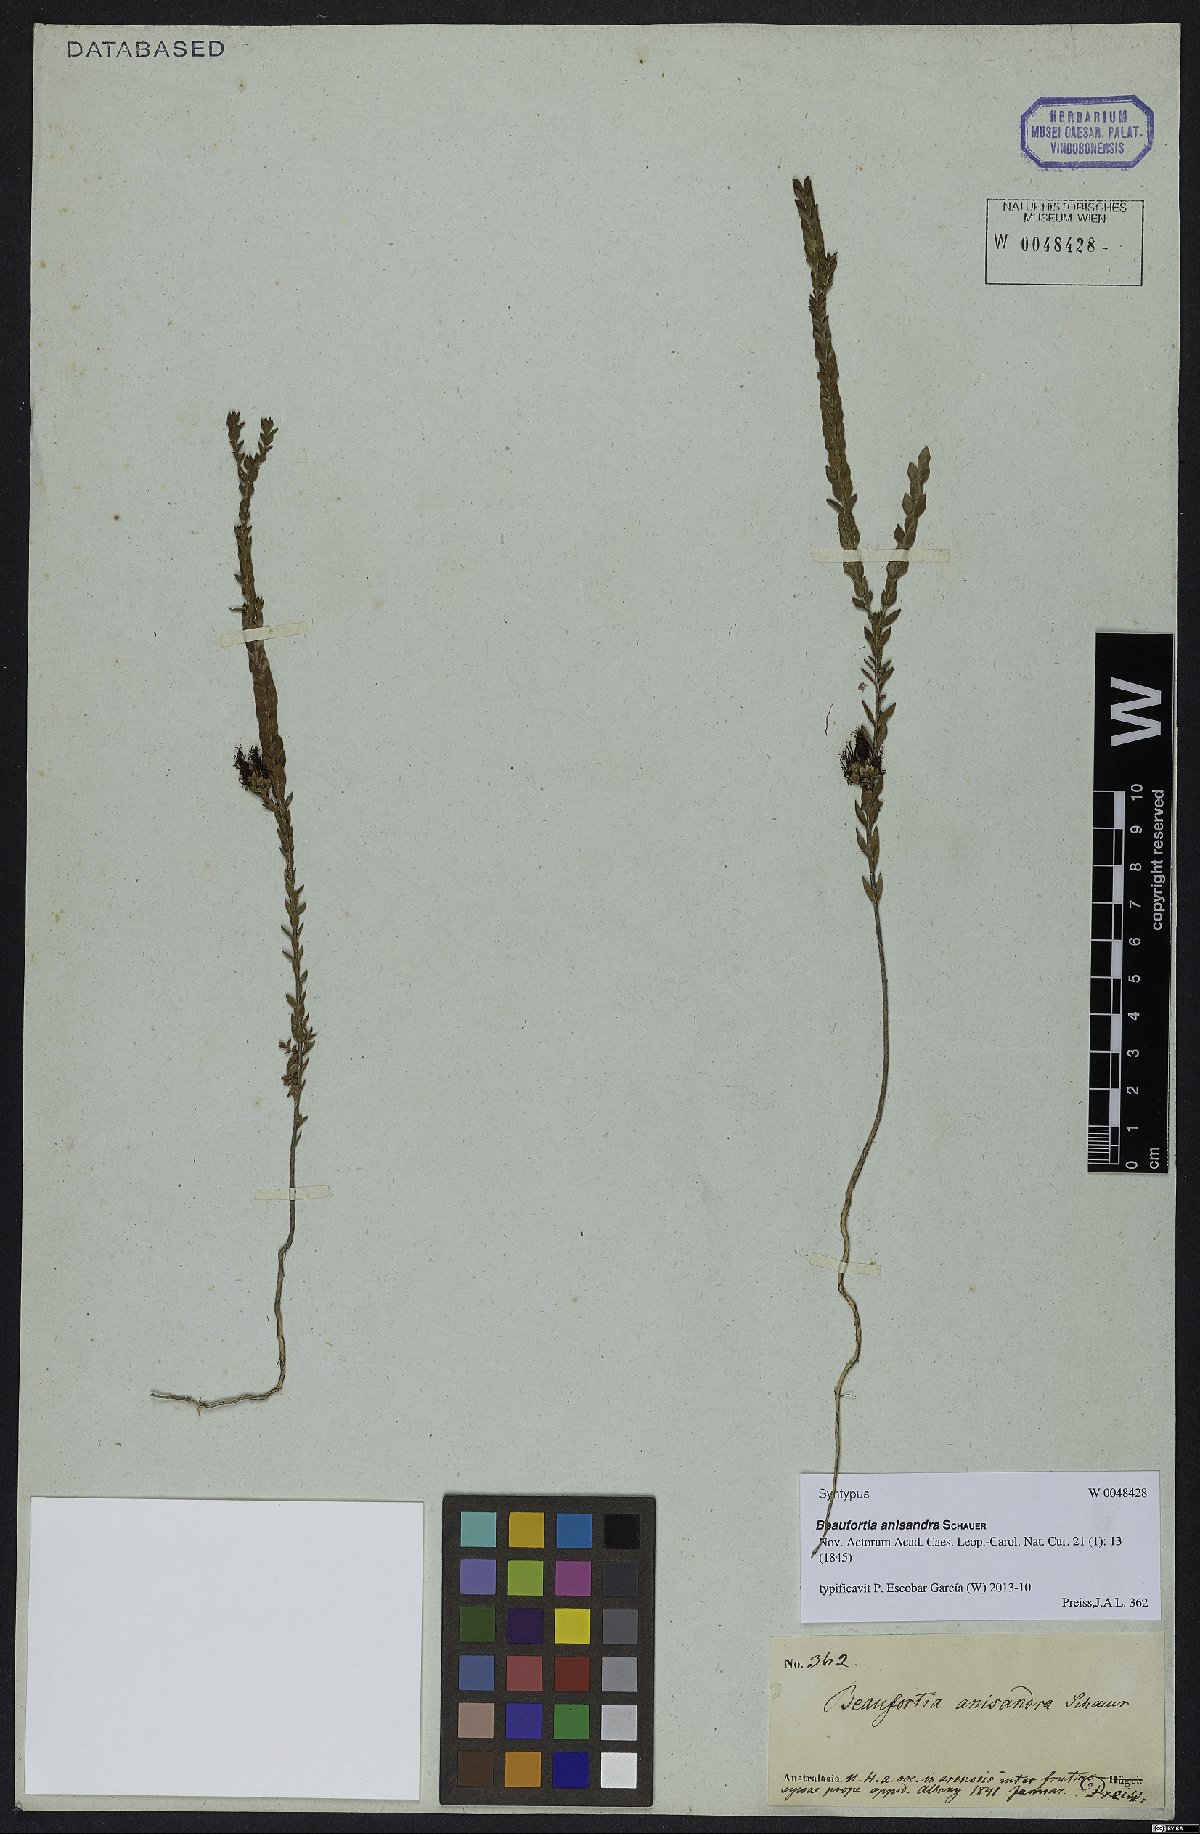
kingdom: Plantae
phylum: Tracheophyta
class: Magnoliopsida
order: Myrtales
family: Myrtaceae
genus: Melaleuca
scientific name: Melaleuca anisandra
